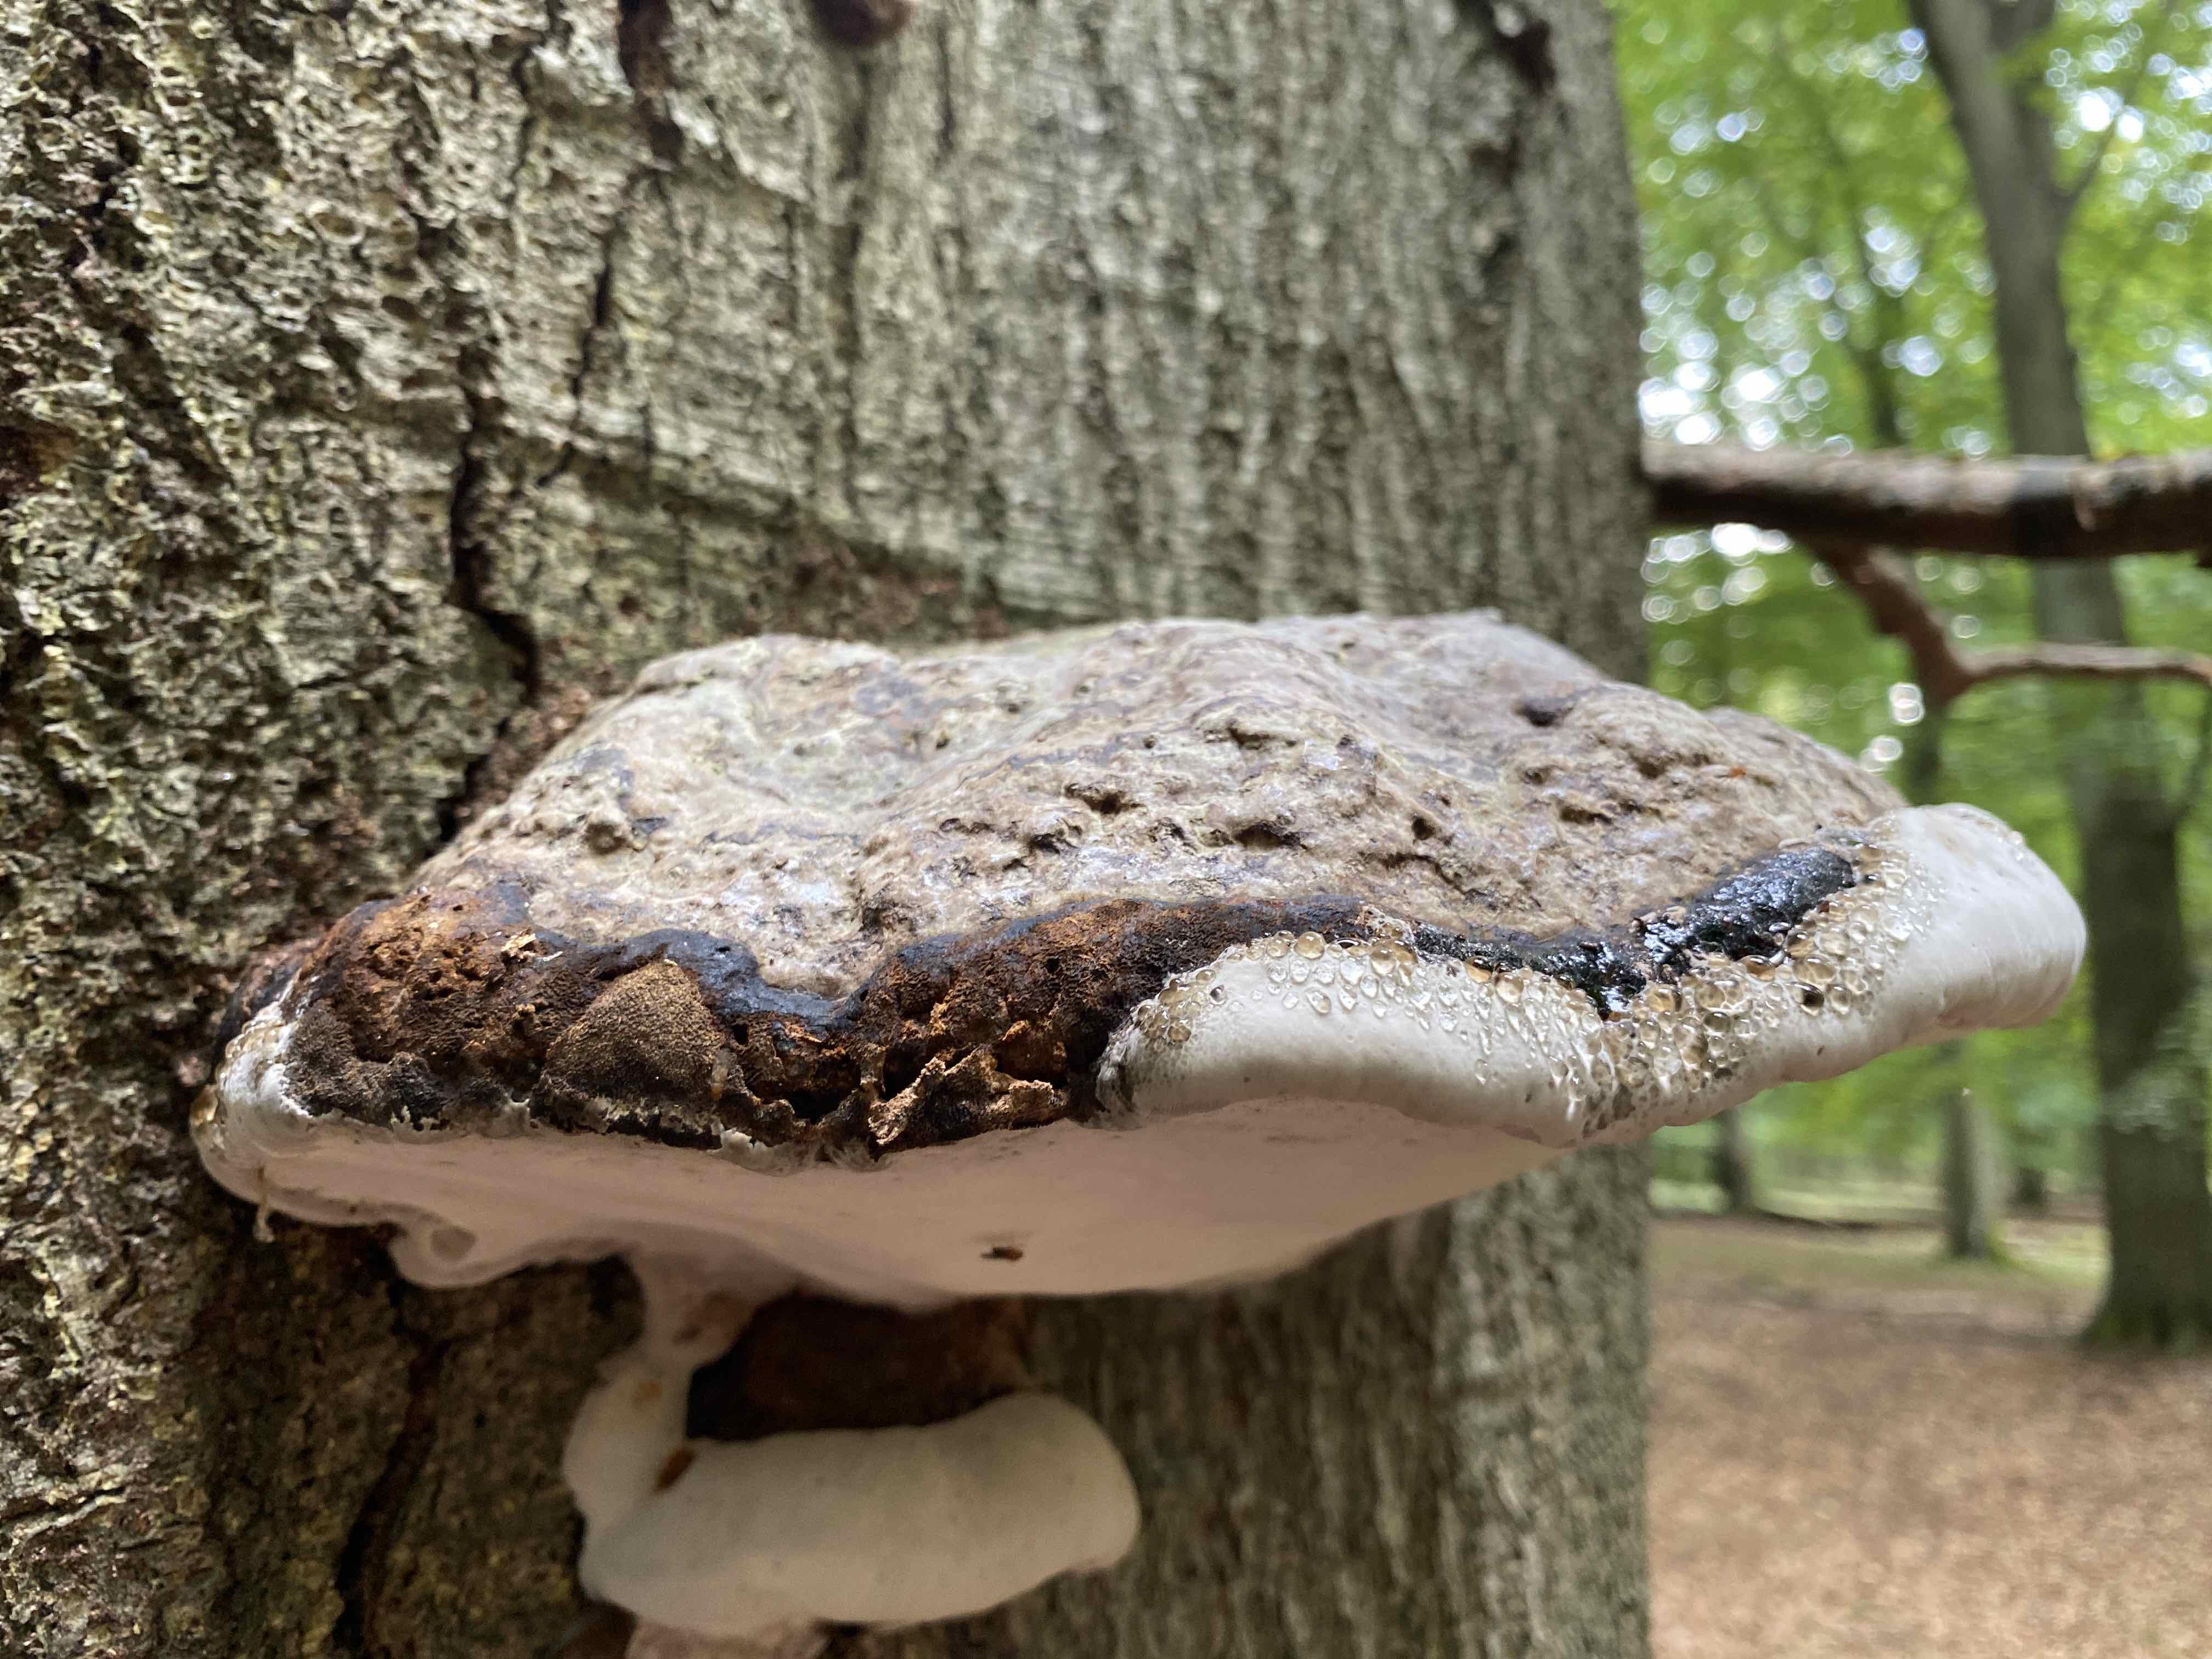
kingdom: Fungi
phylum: Basidiomycota
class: Agaricomycetes
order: Polyporales
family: Polyporaceae
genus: Fomes
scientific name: Fomes fomentarius
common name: tøndersvamp
